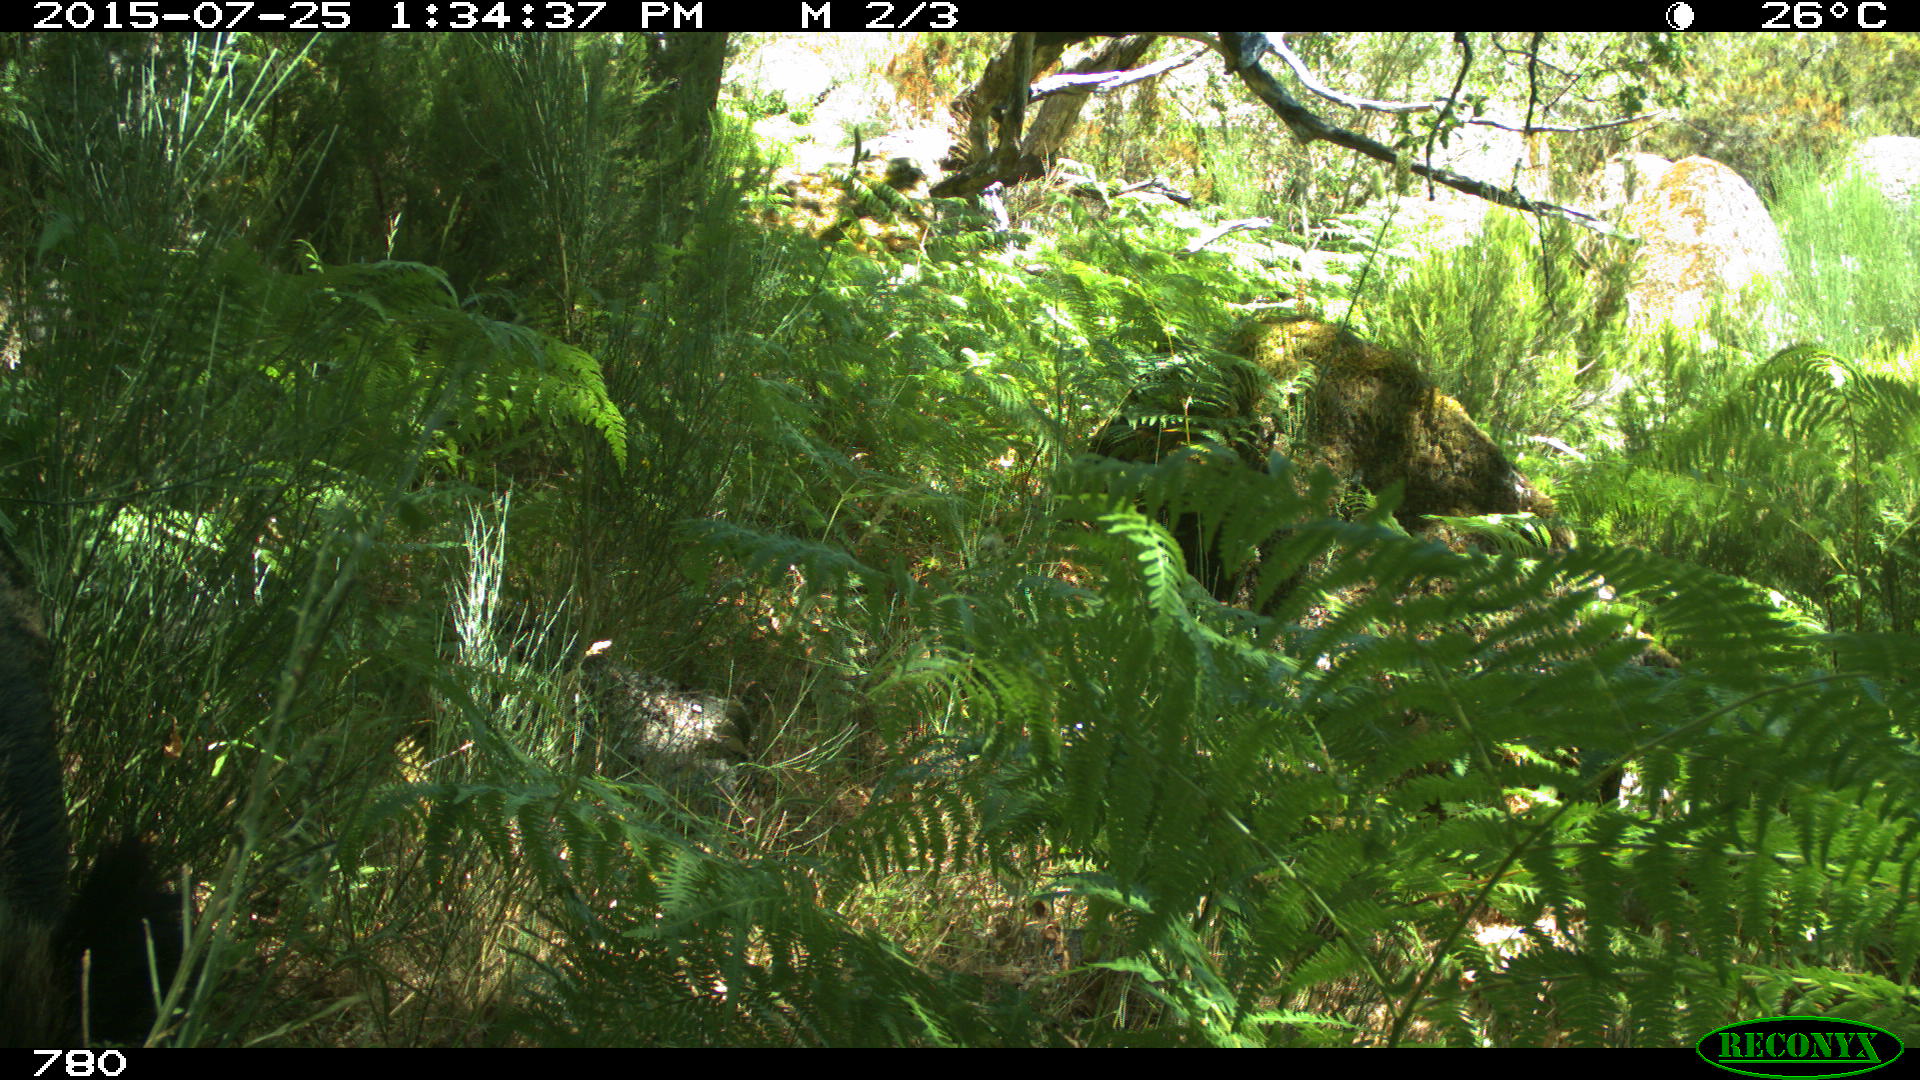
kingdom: Animalia
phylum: Chordata
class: Mammalia
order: Artiodactyla
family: Suidae
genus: Sus
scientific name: Sus scrofa
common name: Wild boar
